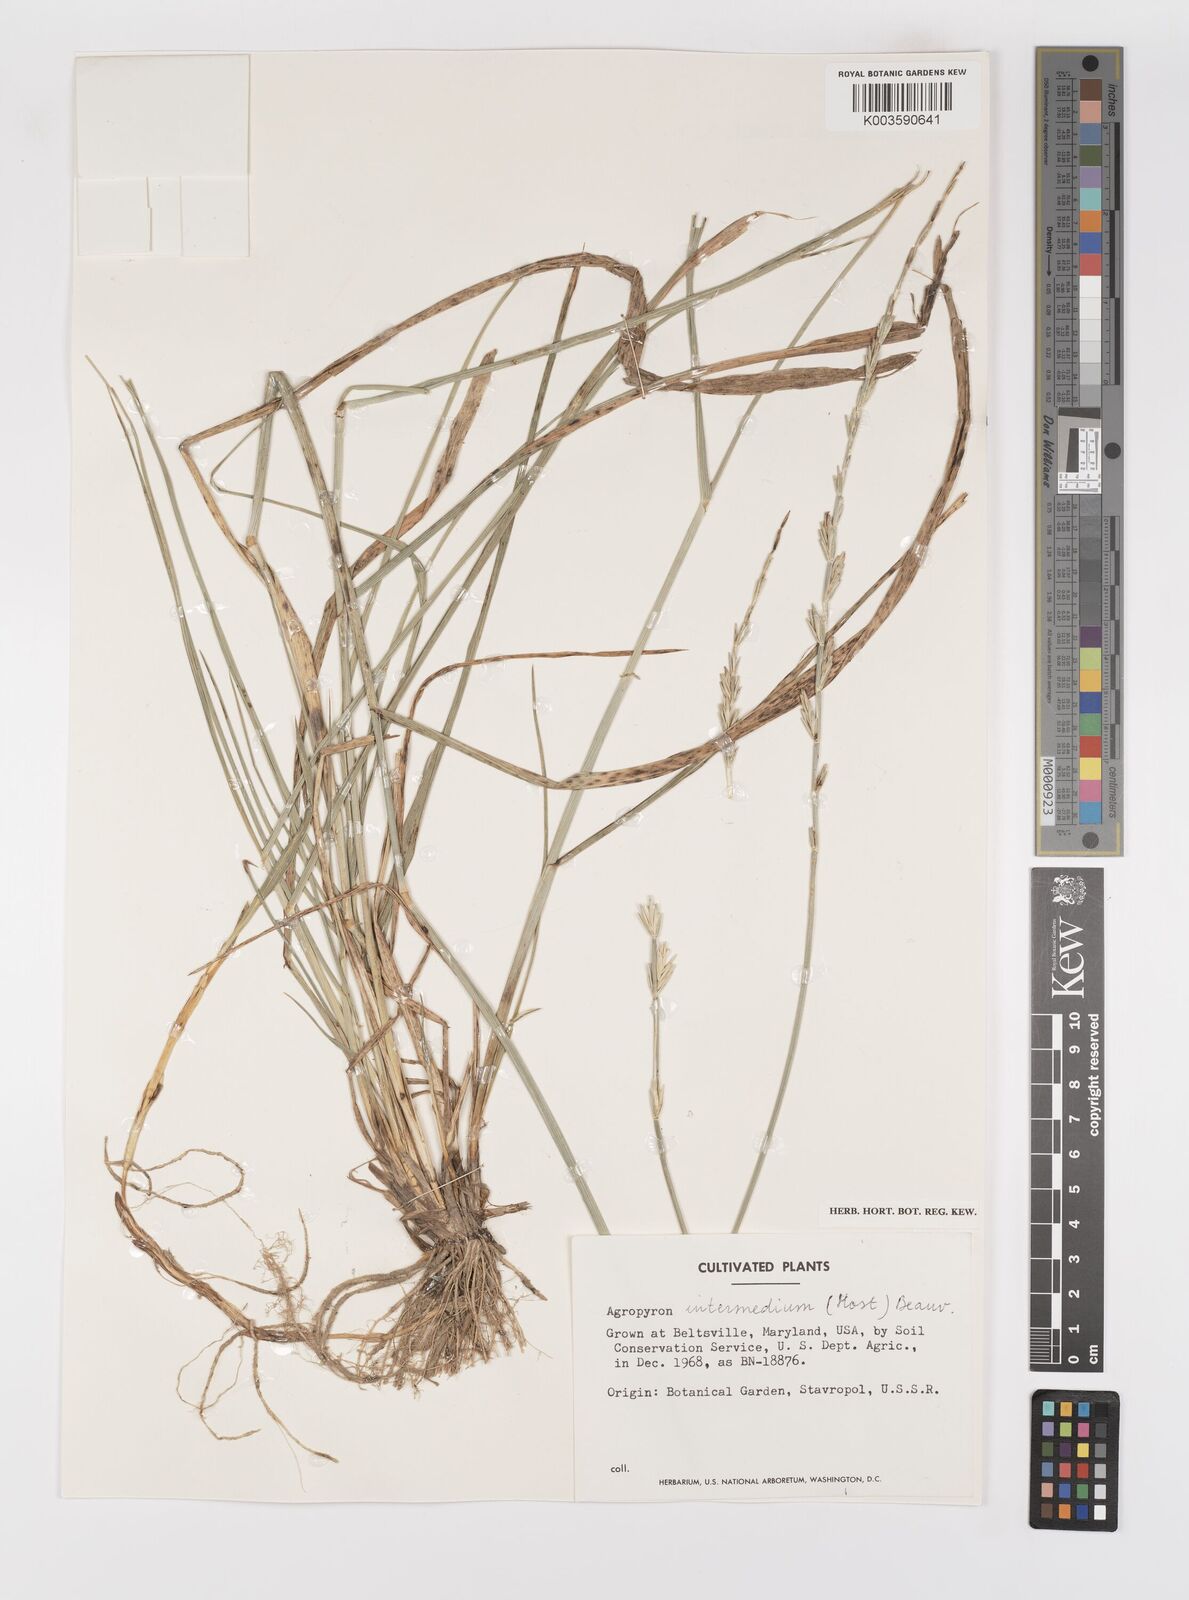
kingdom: Plantae
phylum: Tracheophyta
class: Liliopsida
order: Poales
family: Poaceae
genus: Thinopyrum
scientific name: Thinopyrum intermedium
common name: Intermediate wheatgrass
